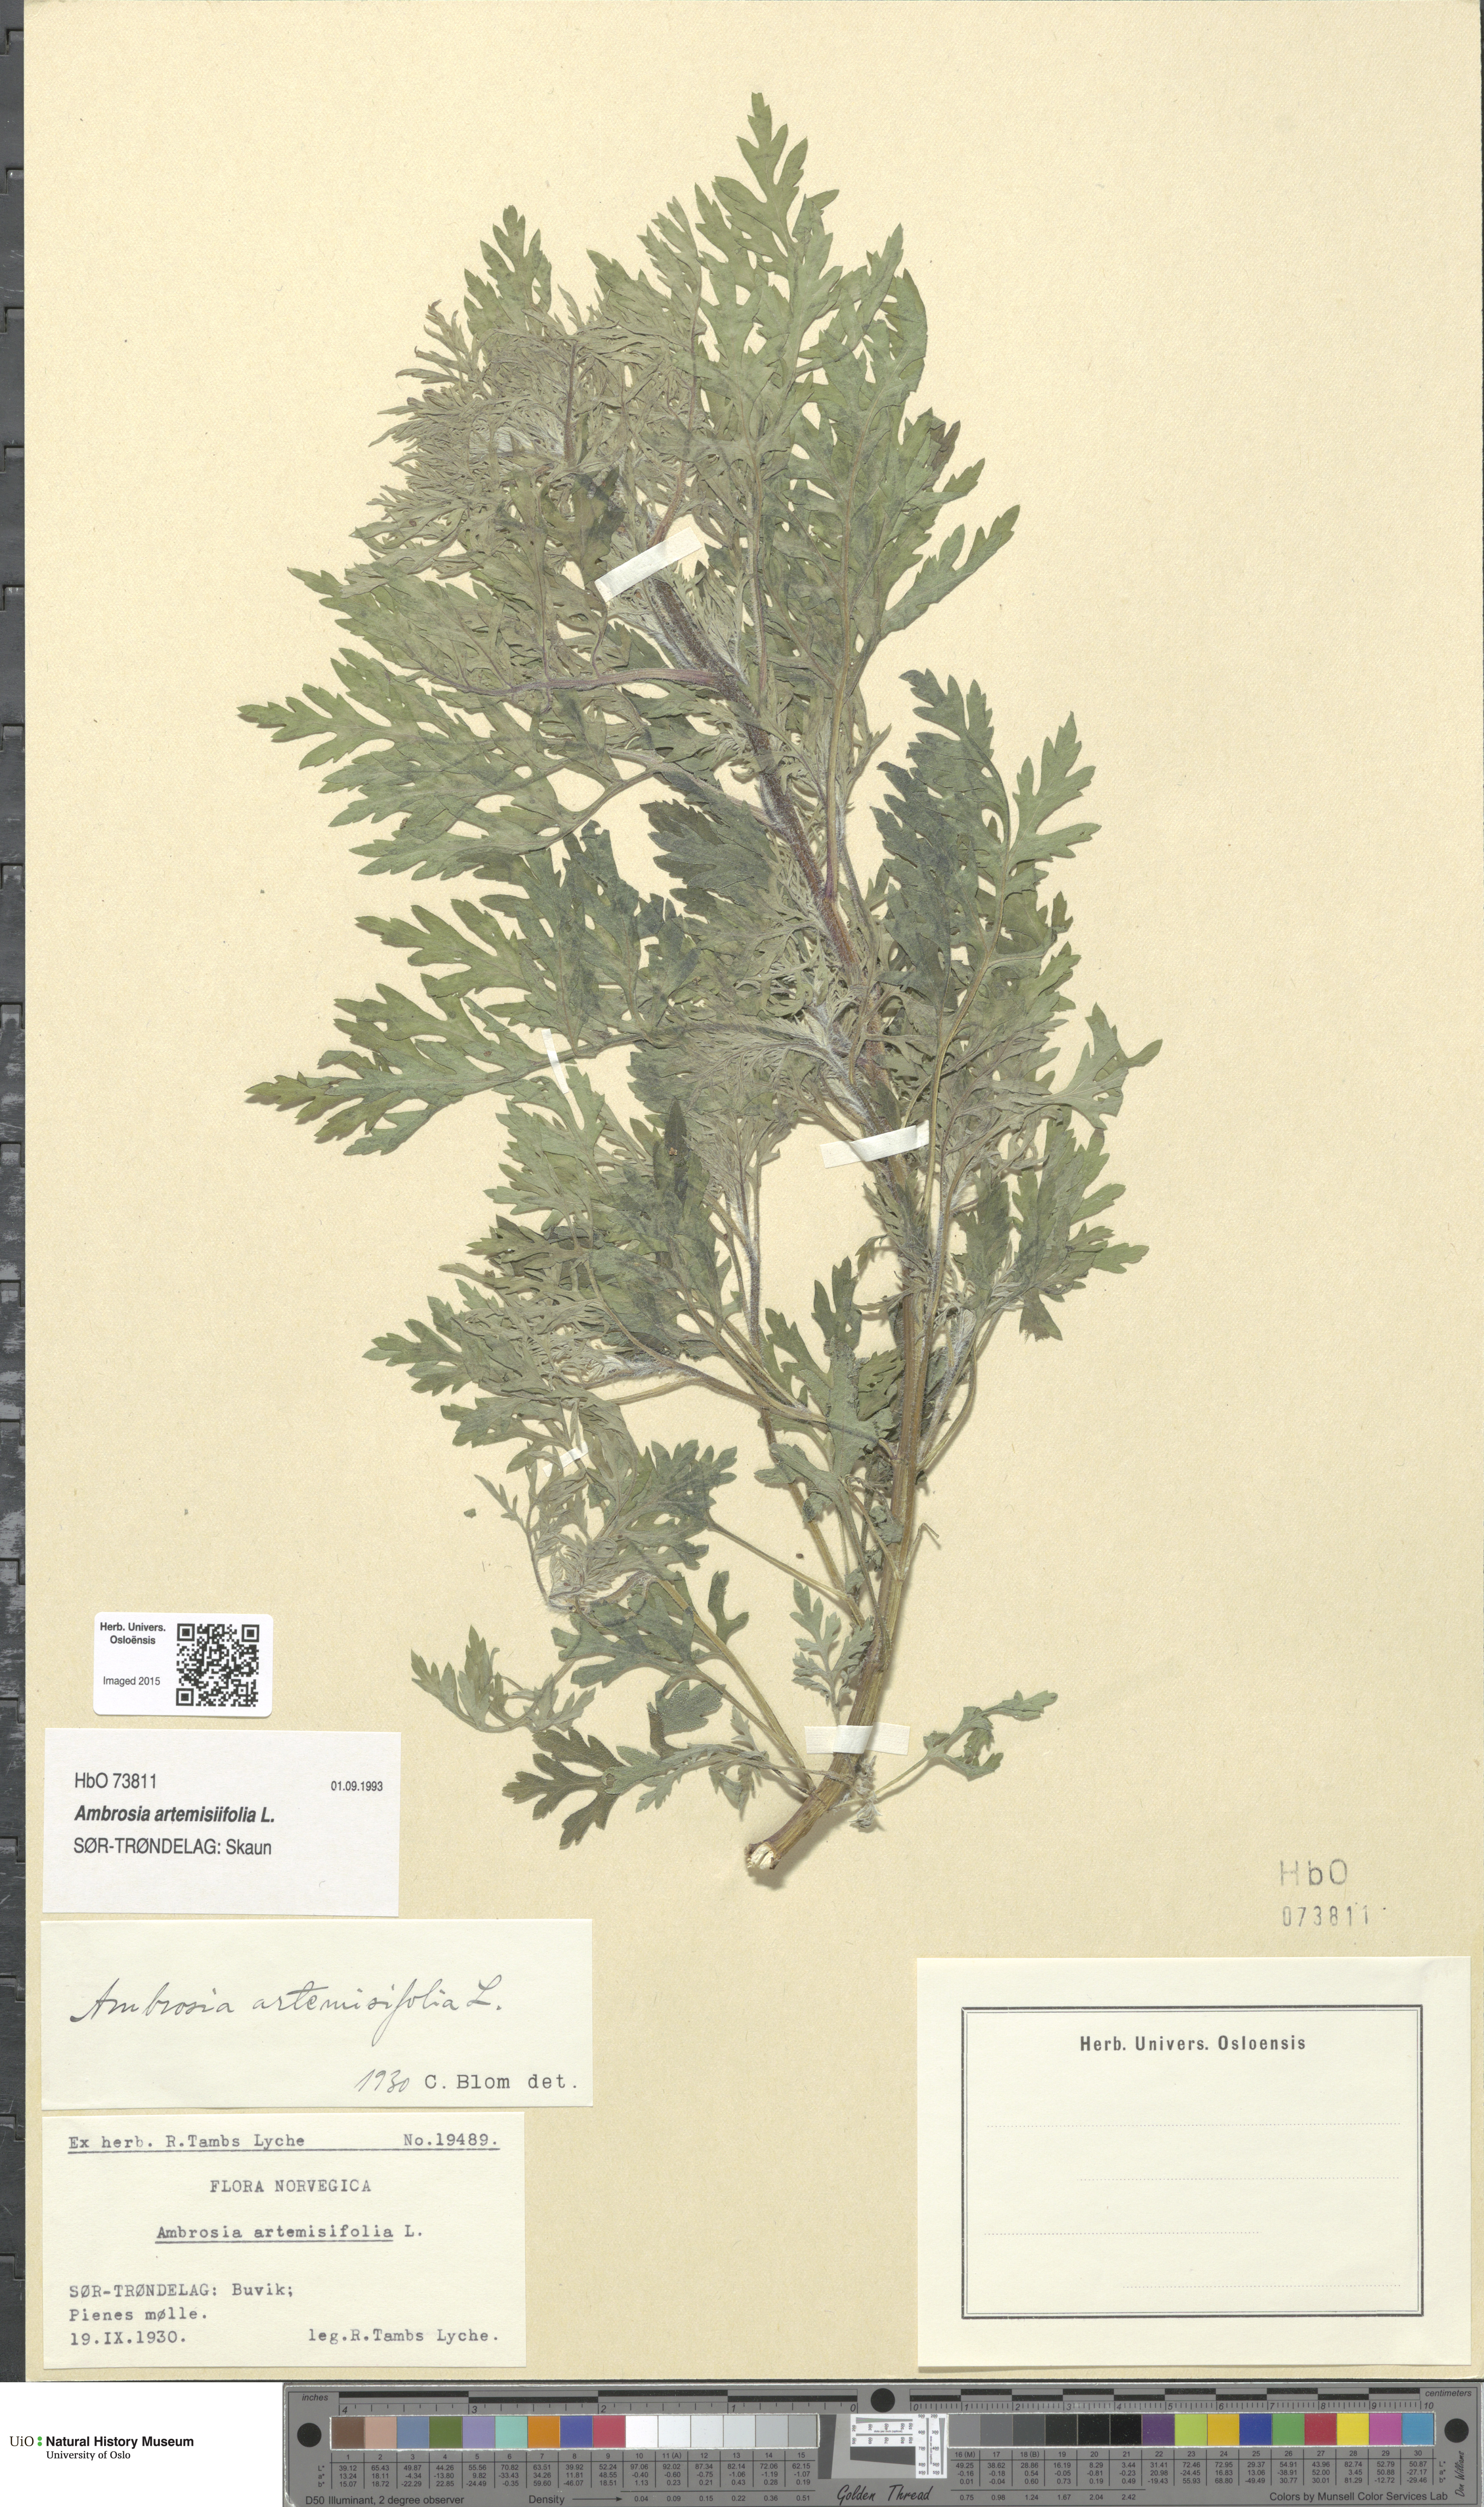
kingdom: Plantae
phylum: Tracheophyta
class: Magnoliopsida
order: Asterales
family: Asteraceae
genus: Ambrosia
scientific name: Ambrosia artemisiifolia
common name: Annual ragweed
